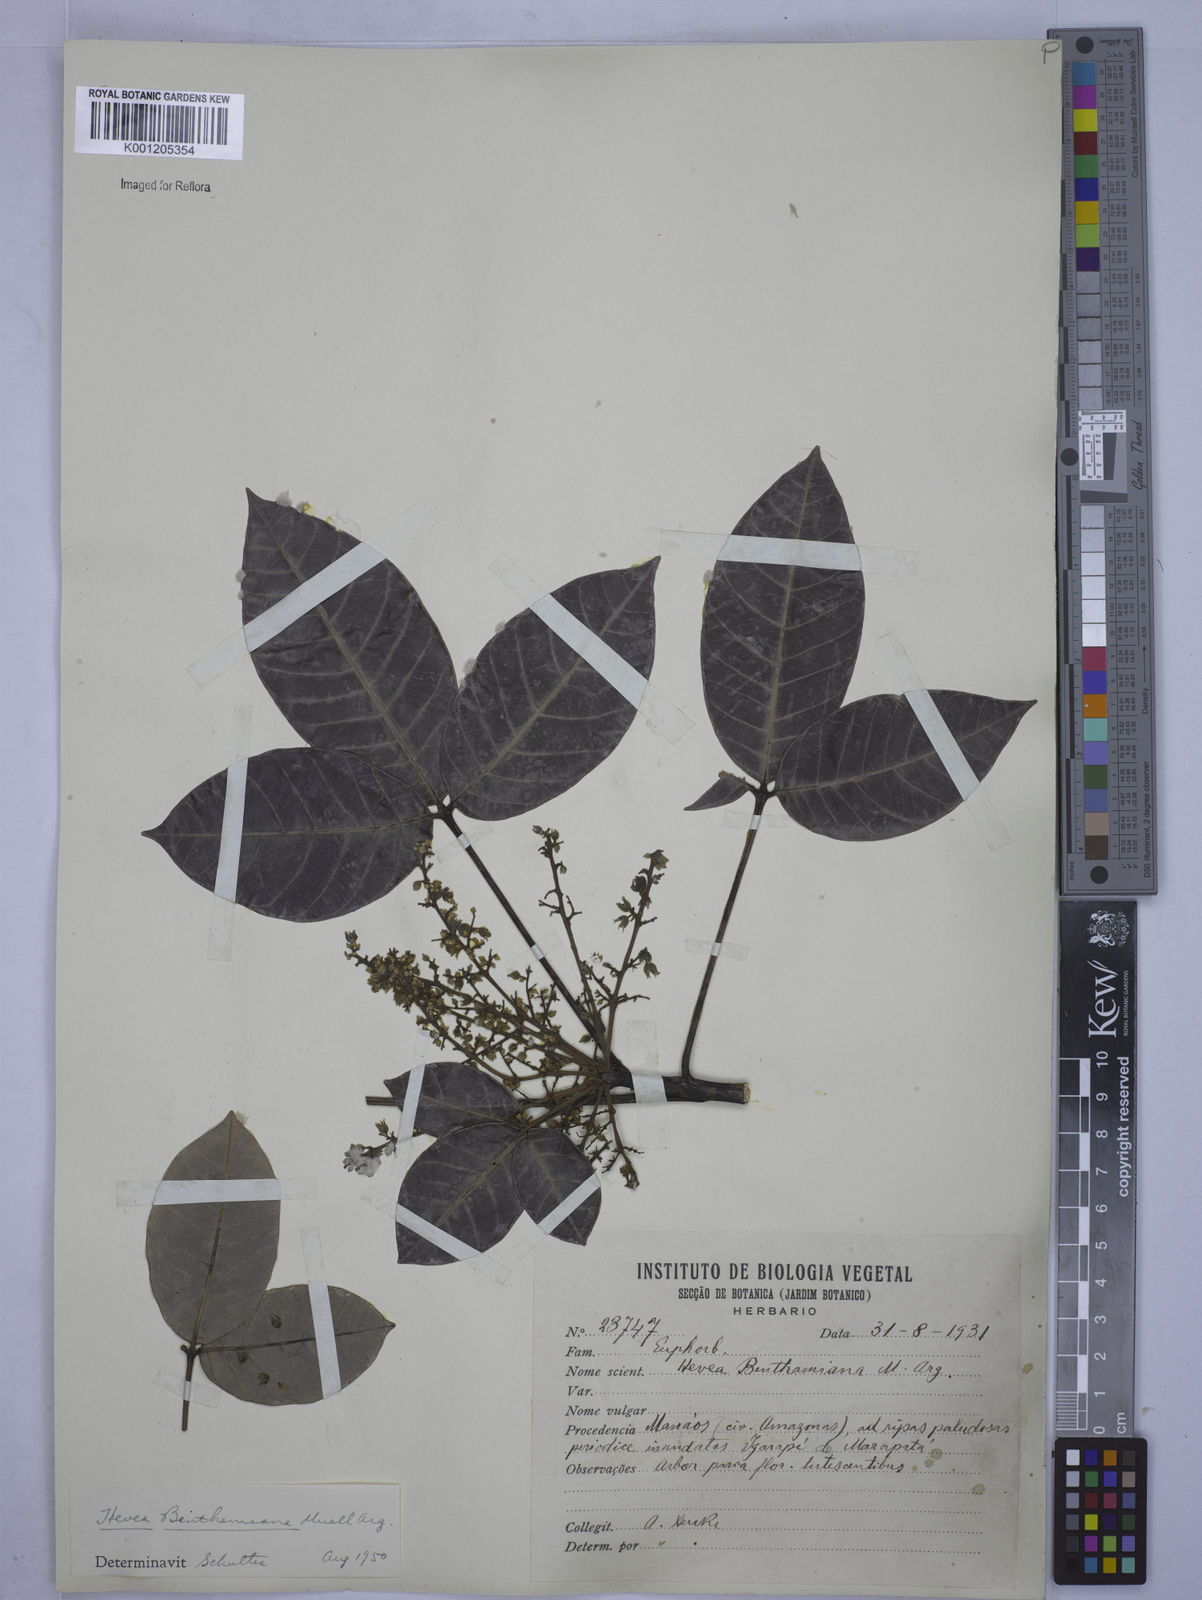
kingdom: Plantae
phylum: Tracheophyta
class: Magnoliopsida
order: Malpighiales
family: Euphorbiaceae
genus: Hevea
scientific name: Hevea
